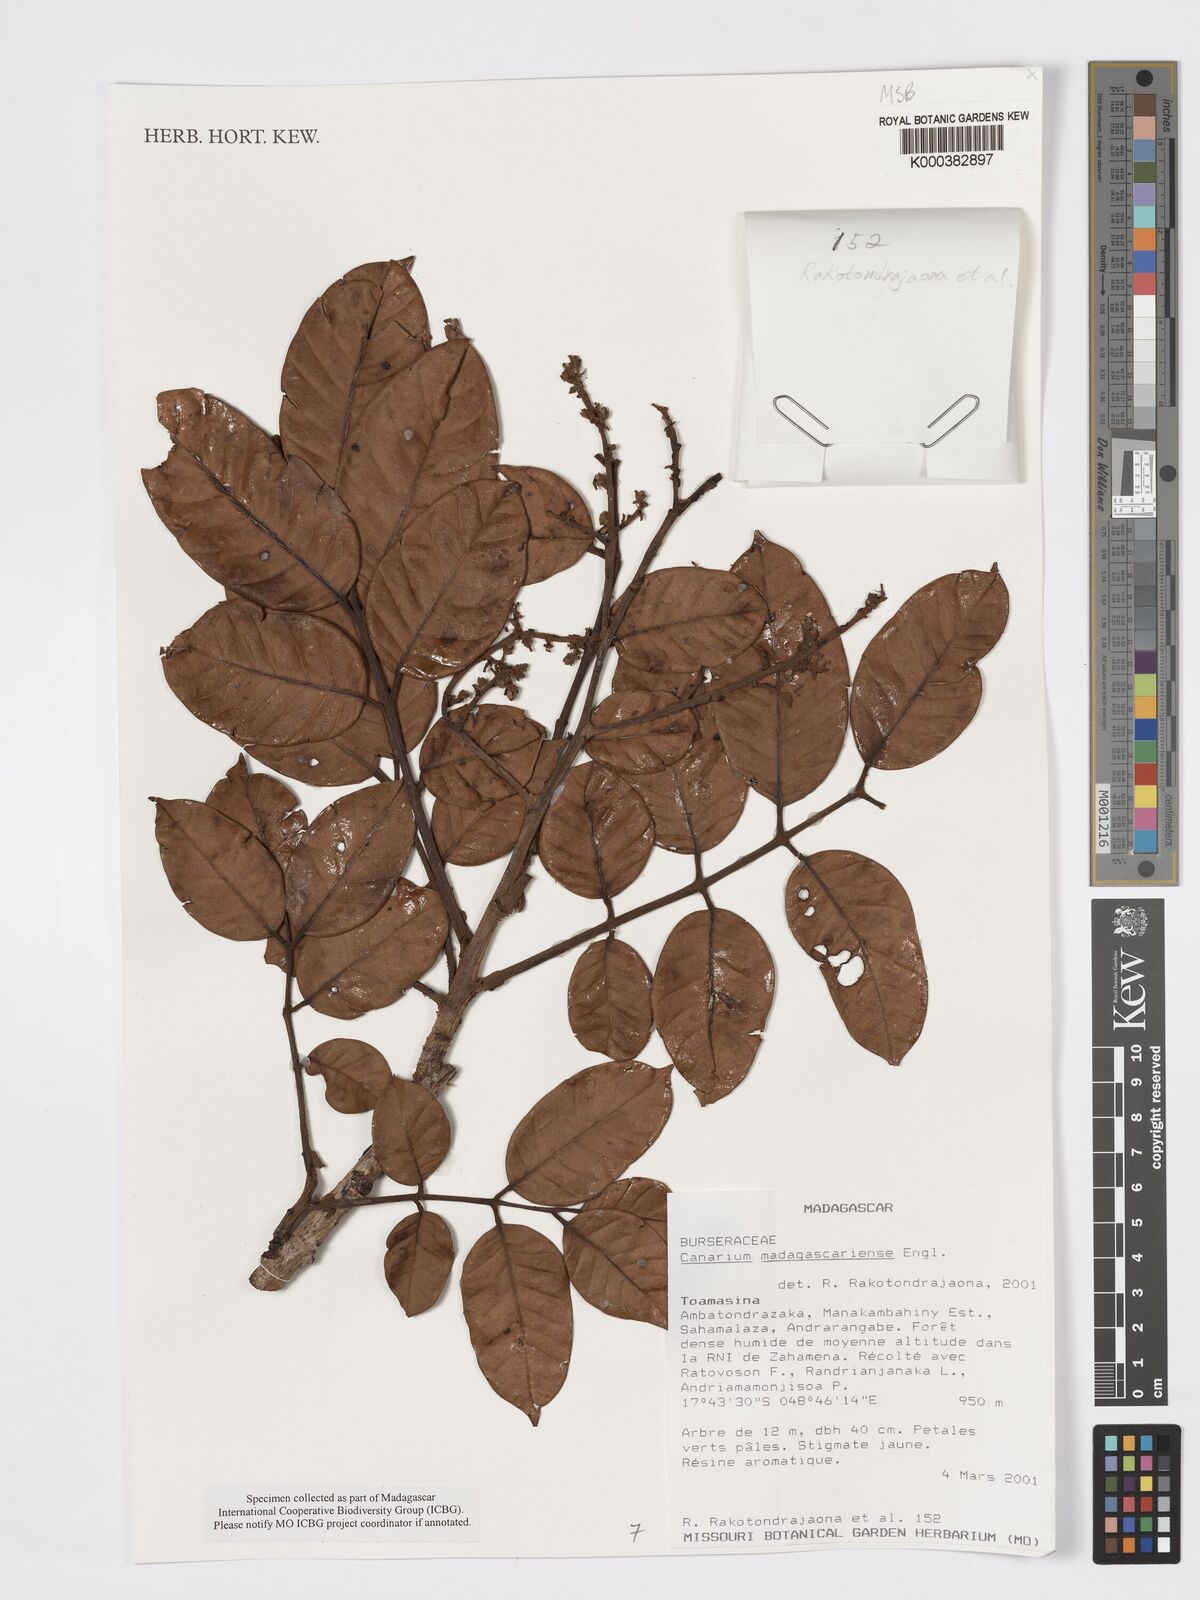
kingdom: Plantae
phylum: Tracheophyta
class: Magnoliopsida
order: Sapindales
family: Burseraceae
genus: Canarium
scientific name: Canarium madagascariense
